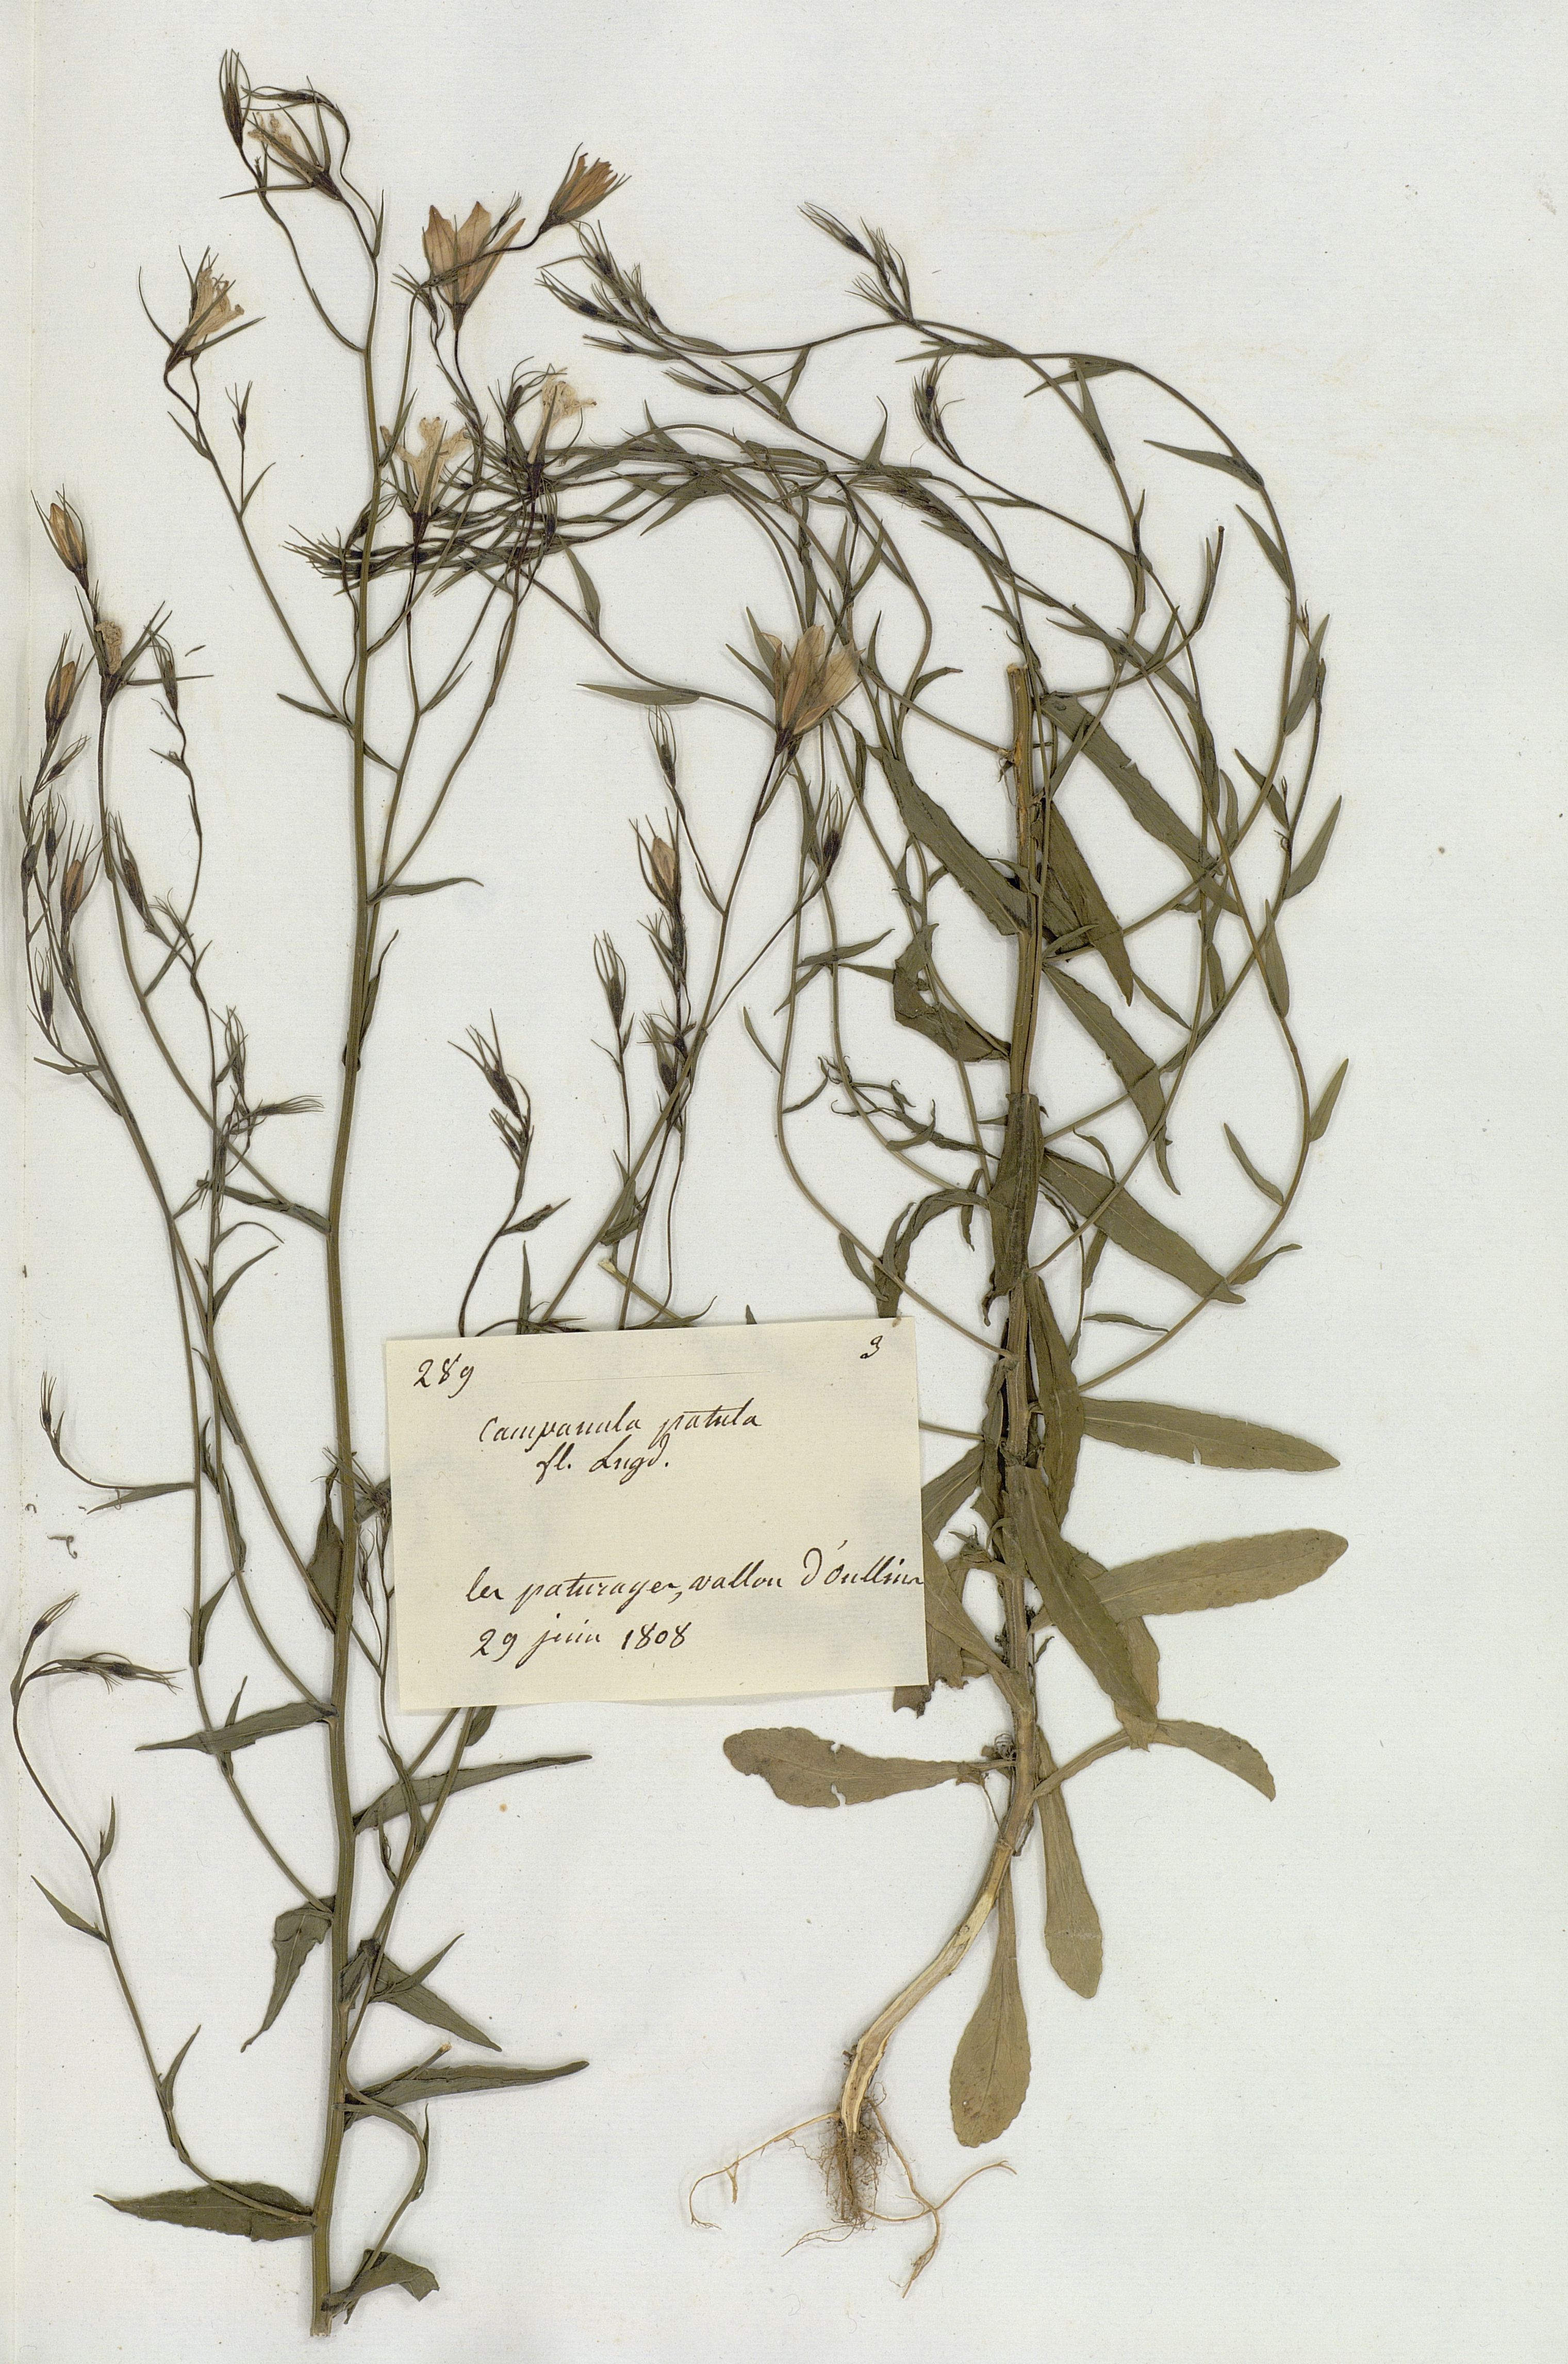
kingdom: Plantae
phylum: Tracheophyta
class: Magnoliopsida
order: Asterales
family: Campanulaceae
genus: Campanula
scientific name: Campanula patula
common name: Spreading bellflower
